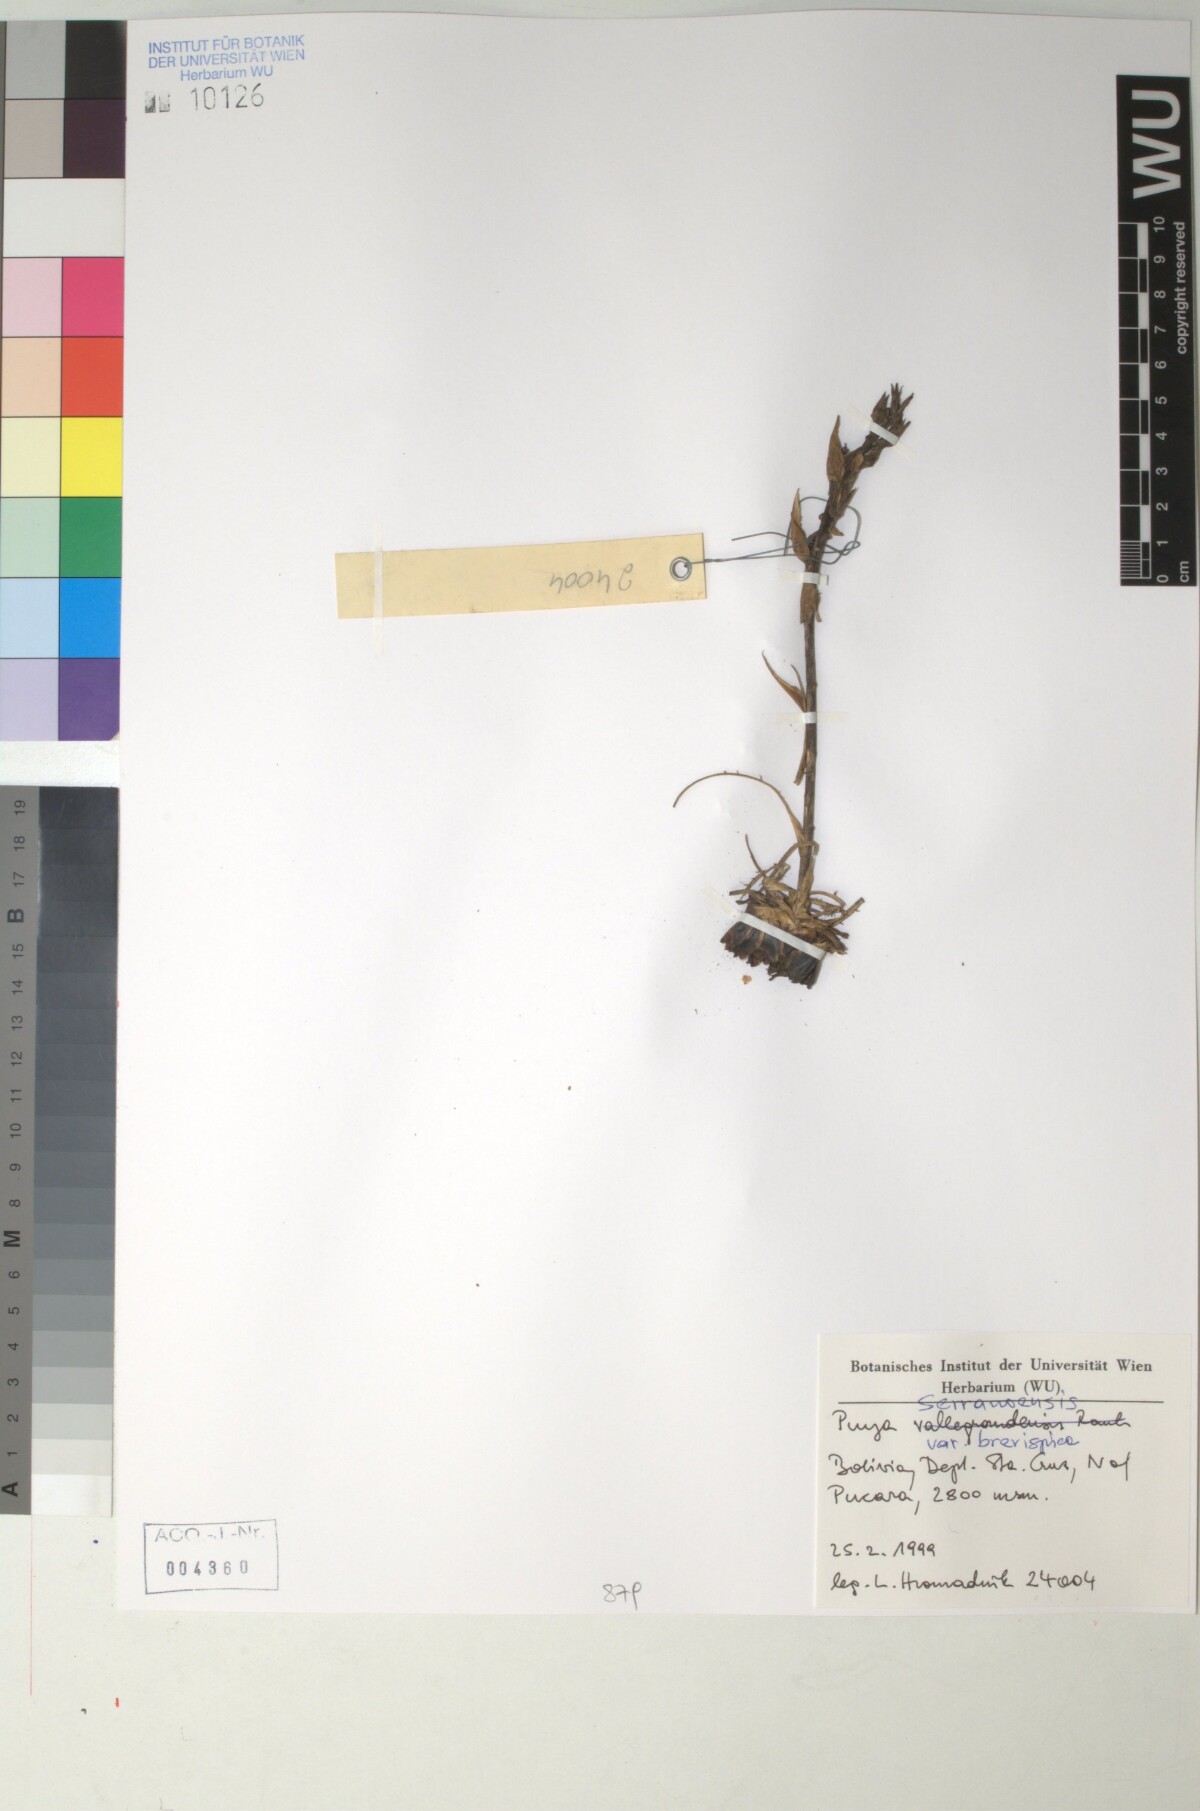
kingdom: Plantae
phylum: Tracheophyta
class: Liliopsida
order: Poales
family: Bromeliaceae
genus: Puya
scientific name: Puya serranoensis
